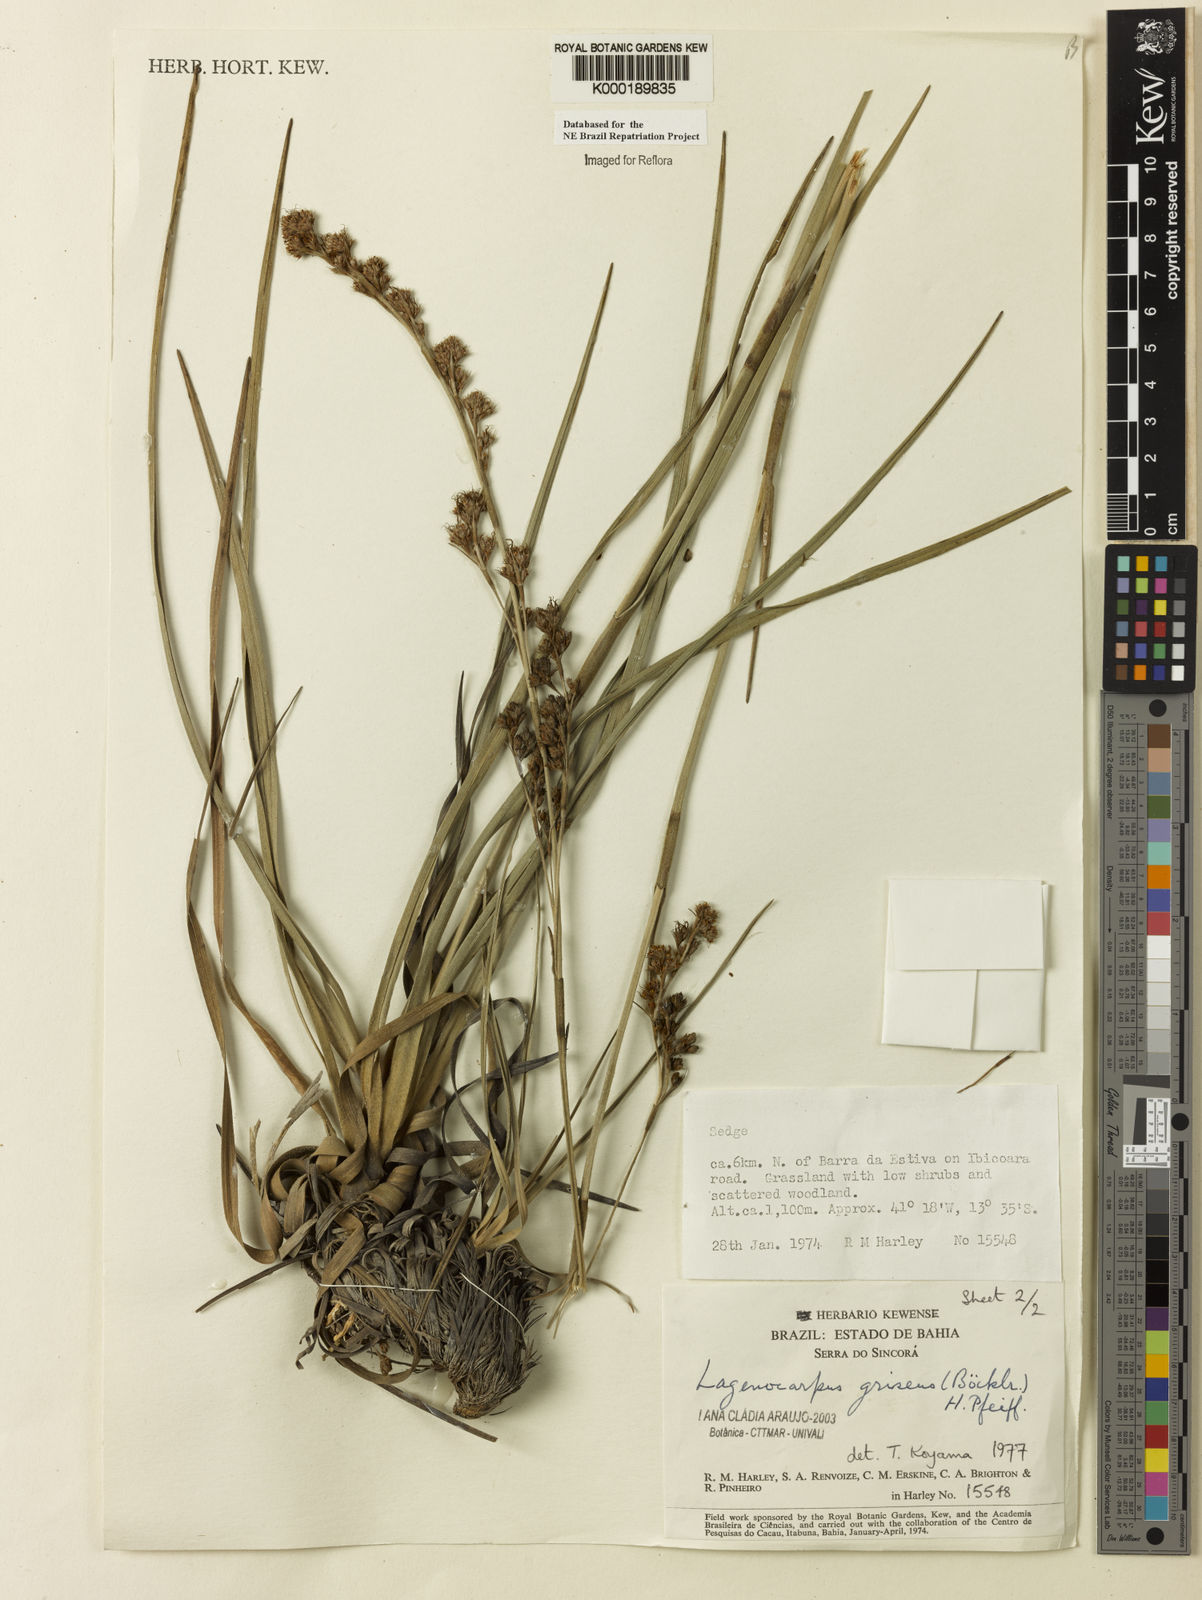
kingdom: Plantae
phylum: Tracheophyta
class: Liliopsida
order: Poales
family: Cyperaceae
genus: Lagenocarpus
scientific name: Lagenocarpus griseus
